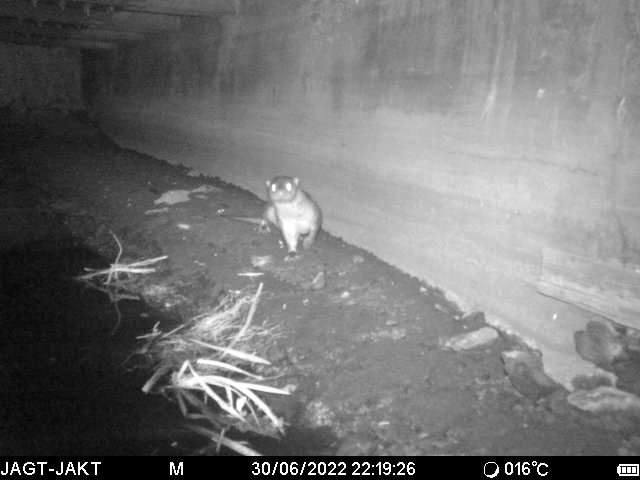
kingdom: Animalia
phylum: Chordata
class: Mammalia
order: Carnivora
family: Mustelidae
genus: Lutra
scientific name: Lutra lutra
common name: Odder
